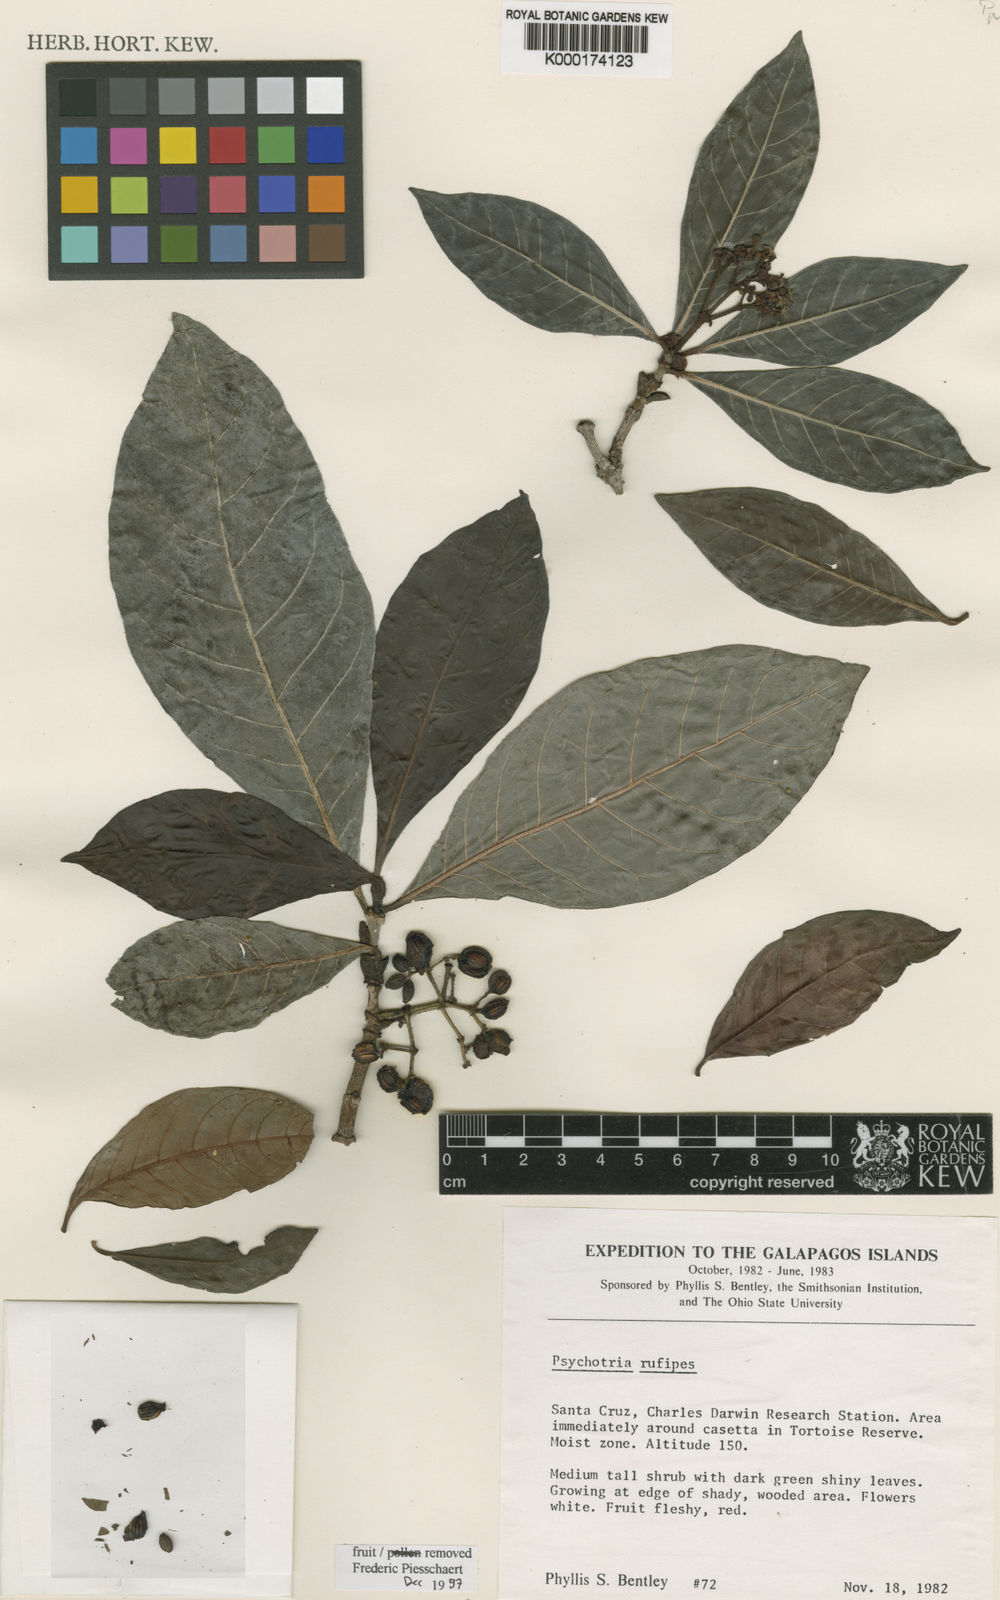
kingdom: Plantae
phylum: Tracheophyta
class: Magnoliopsida
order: Gentianales
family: Rubiaceae
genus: Psychotria
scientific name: Psychotria rufipes
